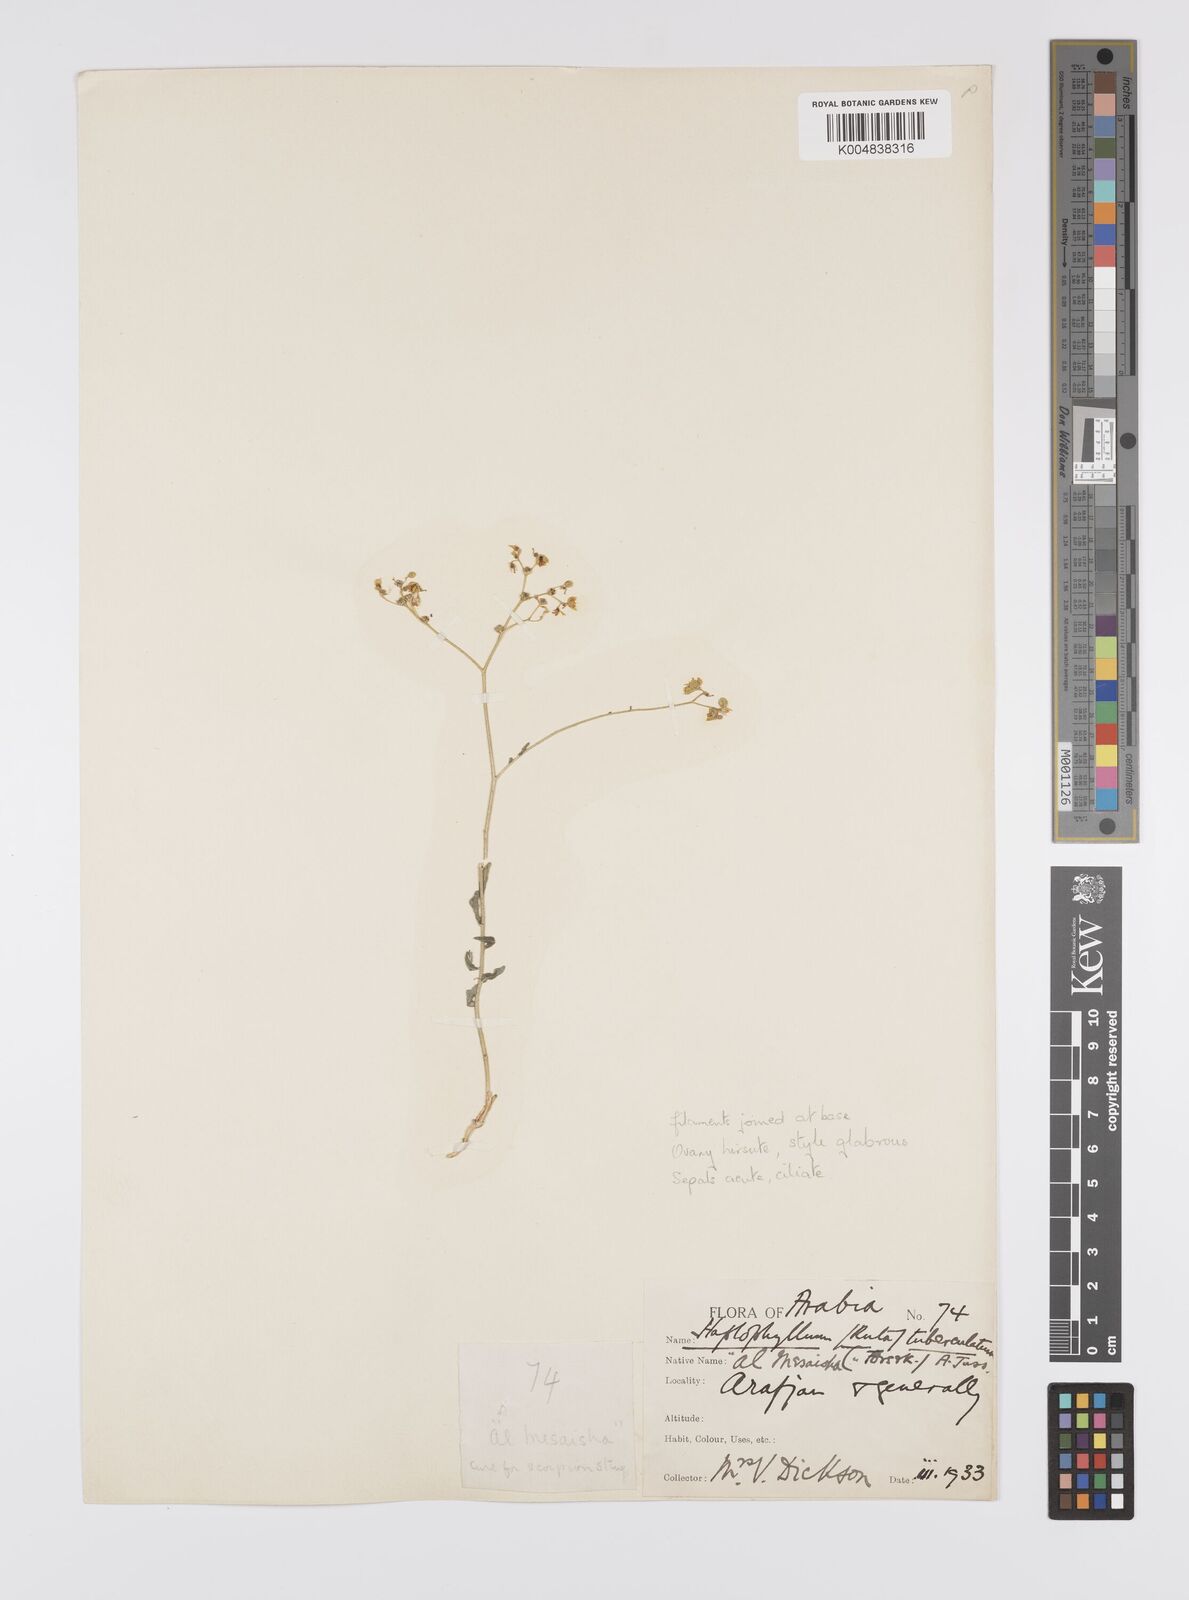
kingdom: Plantae
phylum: Tracheophyta
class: Magnoliopsida
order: Sapindales
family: Rutaceae
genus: Haplophyllum
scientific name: Haplophyllum tuberculatum
